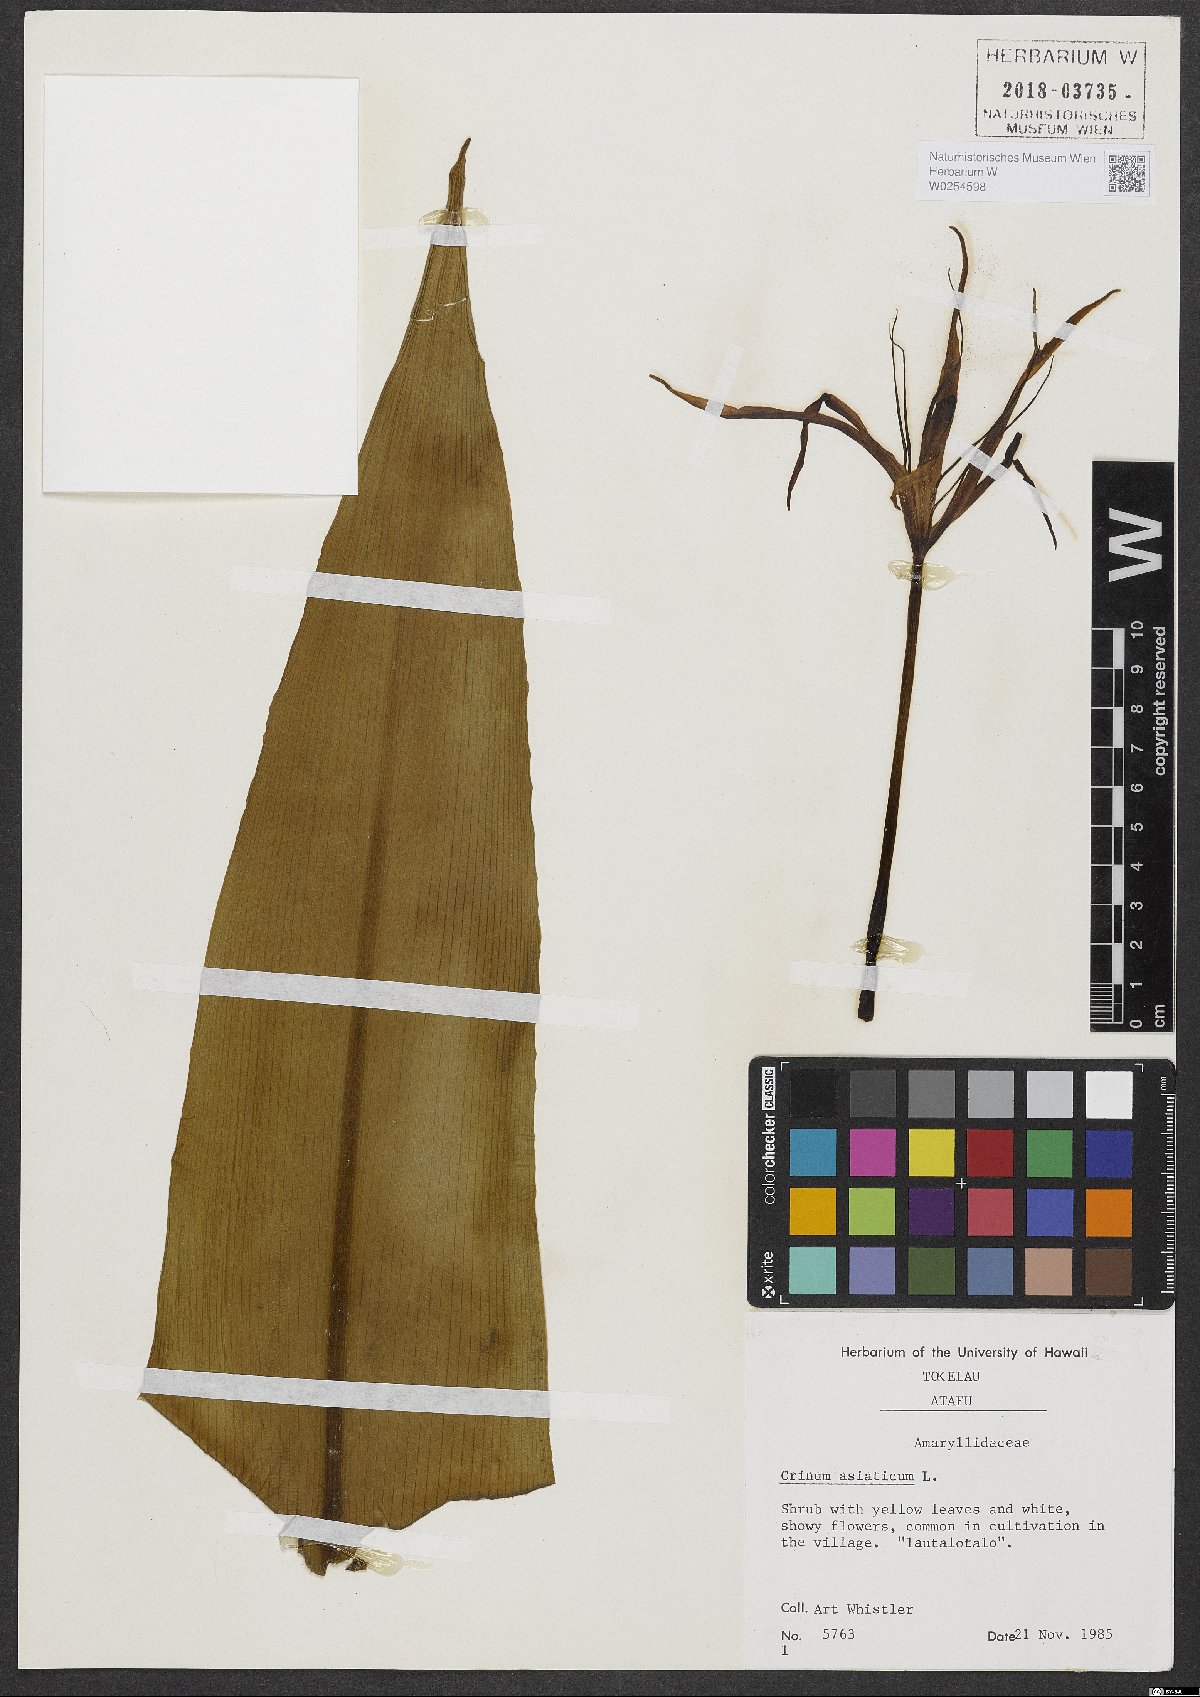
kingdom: Plantae
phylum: Tracheophyta
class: Liliopsida
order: Asparagales
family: Amaryllidaceae
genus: Crinum
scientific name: Crinum asiaticum
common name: Poisonbulb
